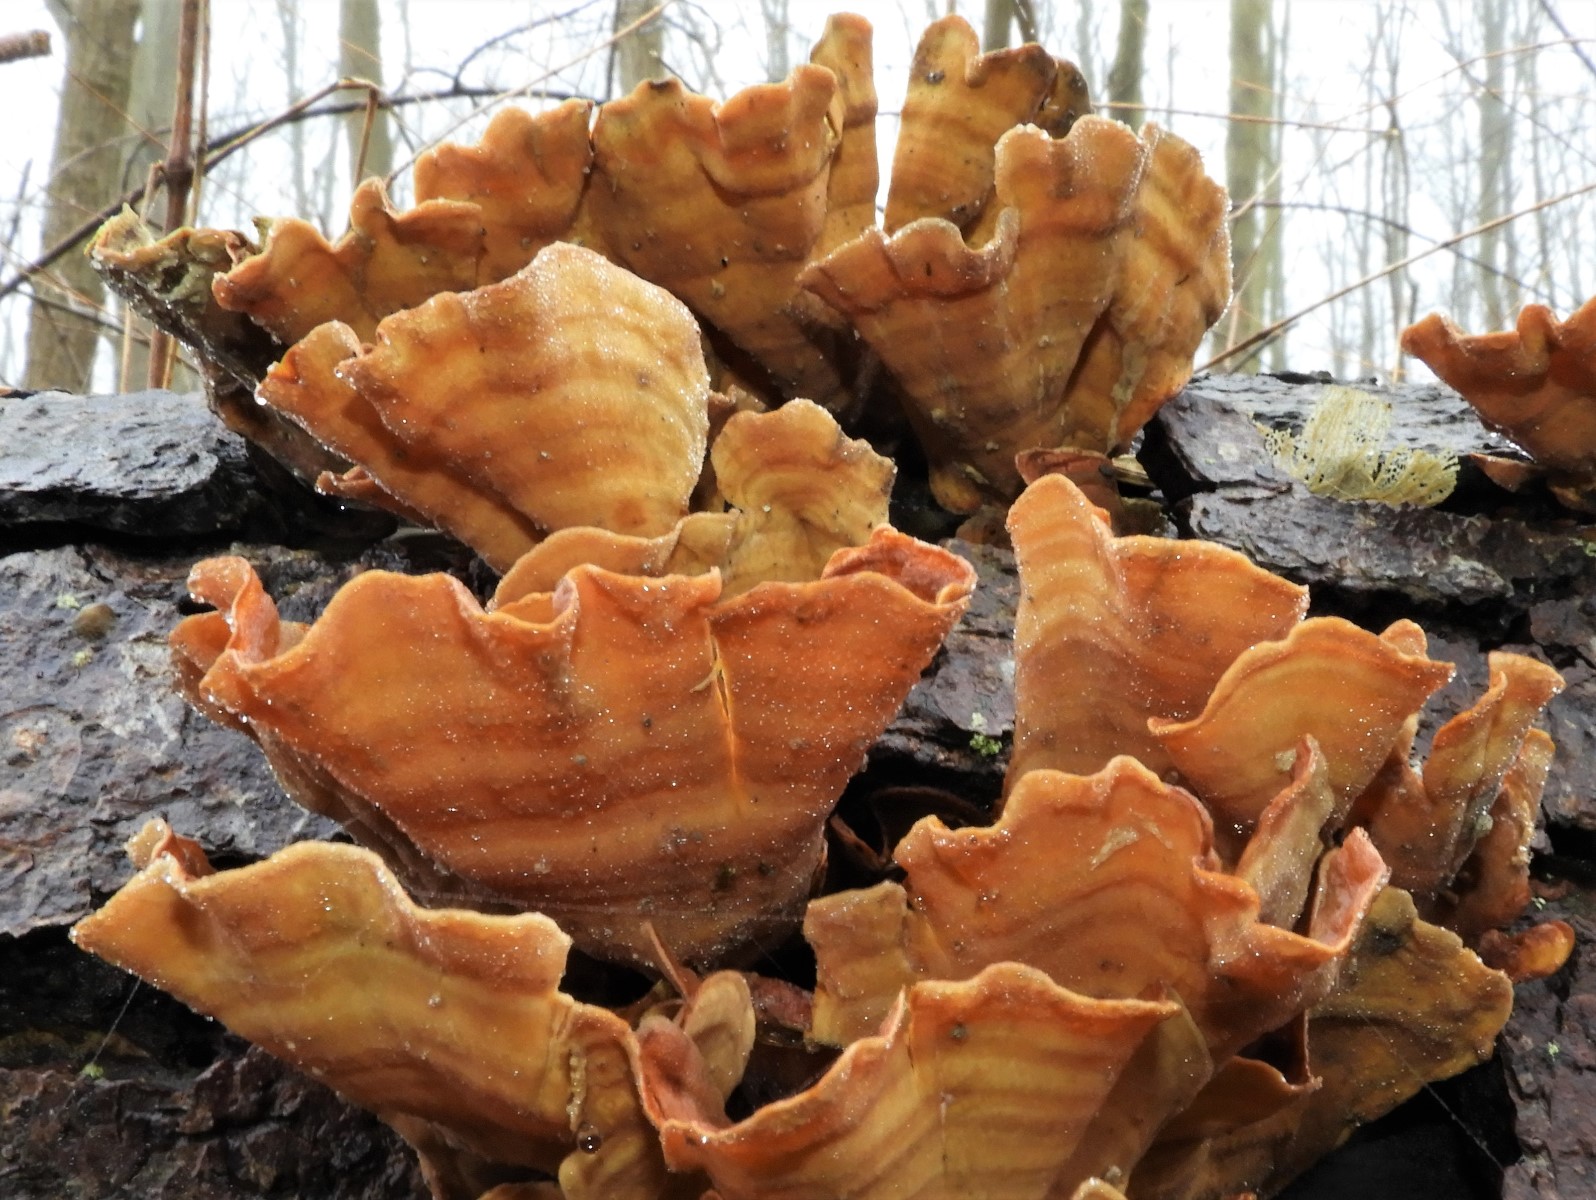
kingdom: Fungi
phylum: Basidiomycota
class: Agaricomycetes
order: Russulales
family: Stereaceae
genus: Stereum
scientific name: Stereum subtomentosum
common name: smuk lædersvamp
